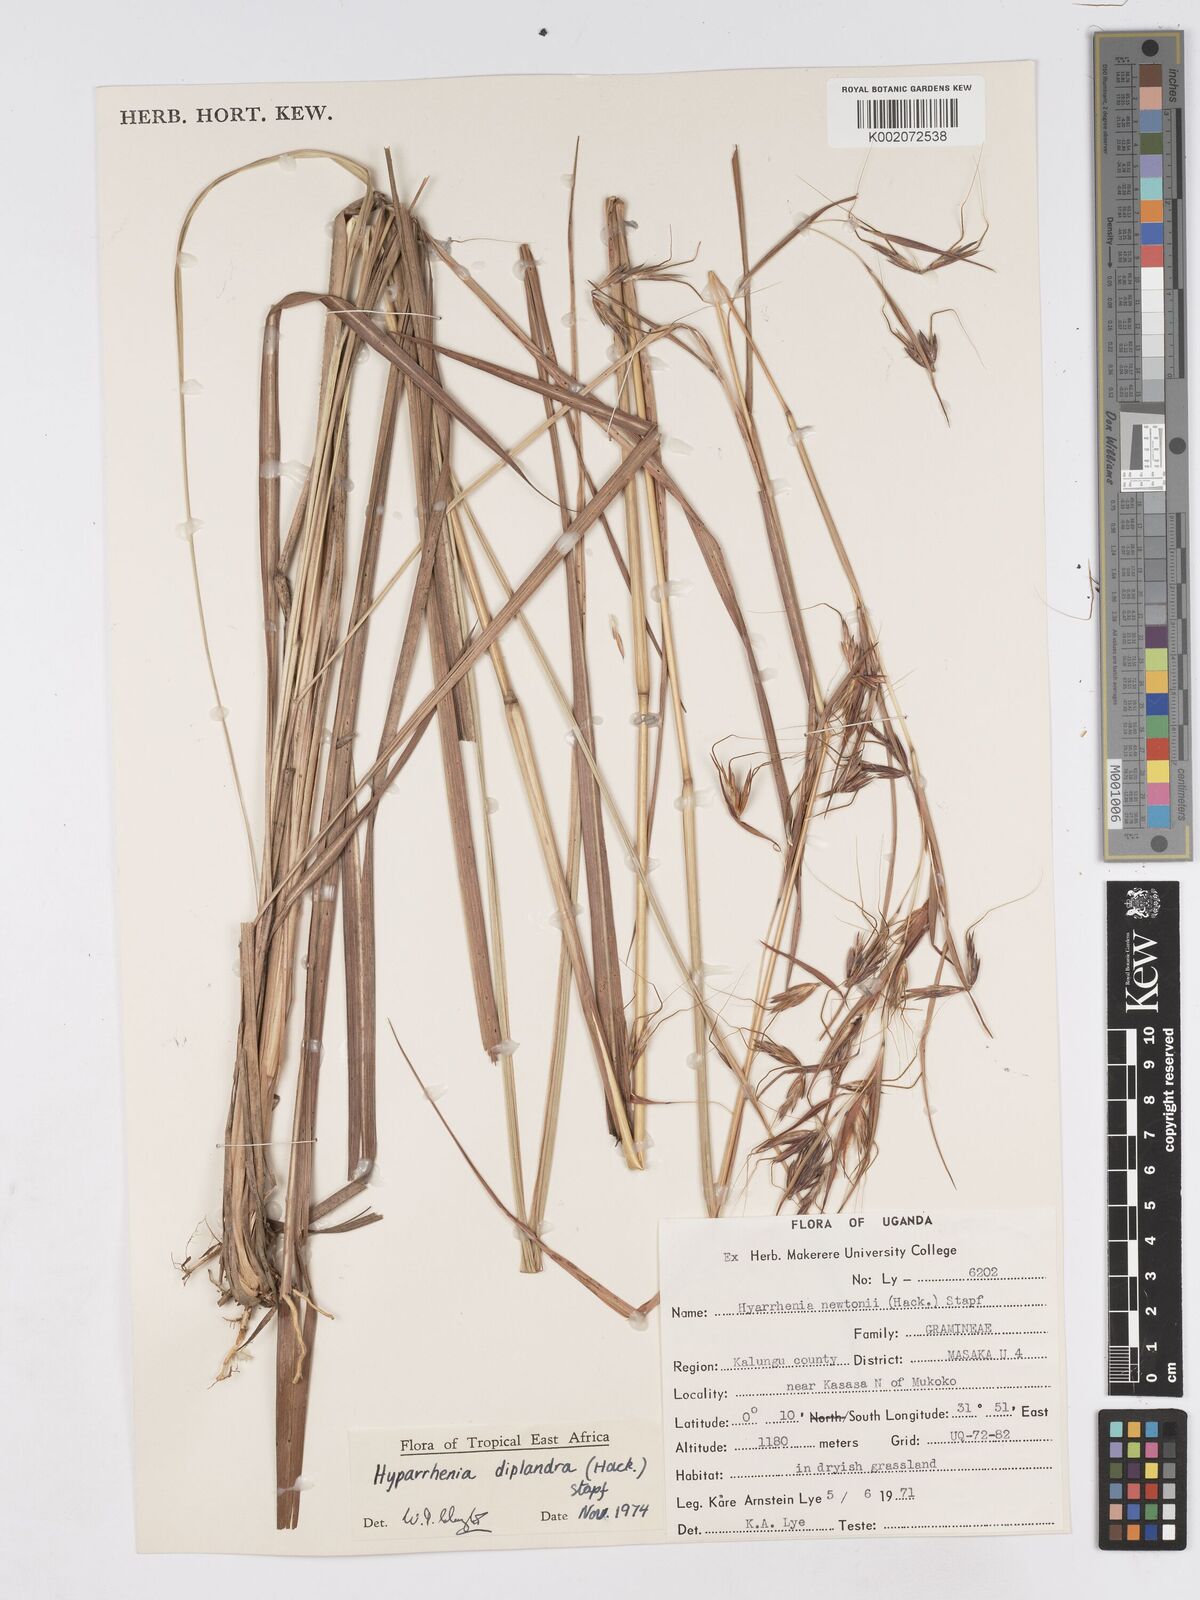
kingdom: Plantae
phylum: Tracheophyta
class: Liliopsida
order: Poales
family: Poaceae
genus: Hyparrhenia
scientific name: Hyparrhenia diplandra
